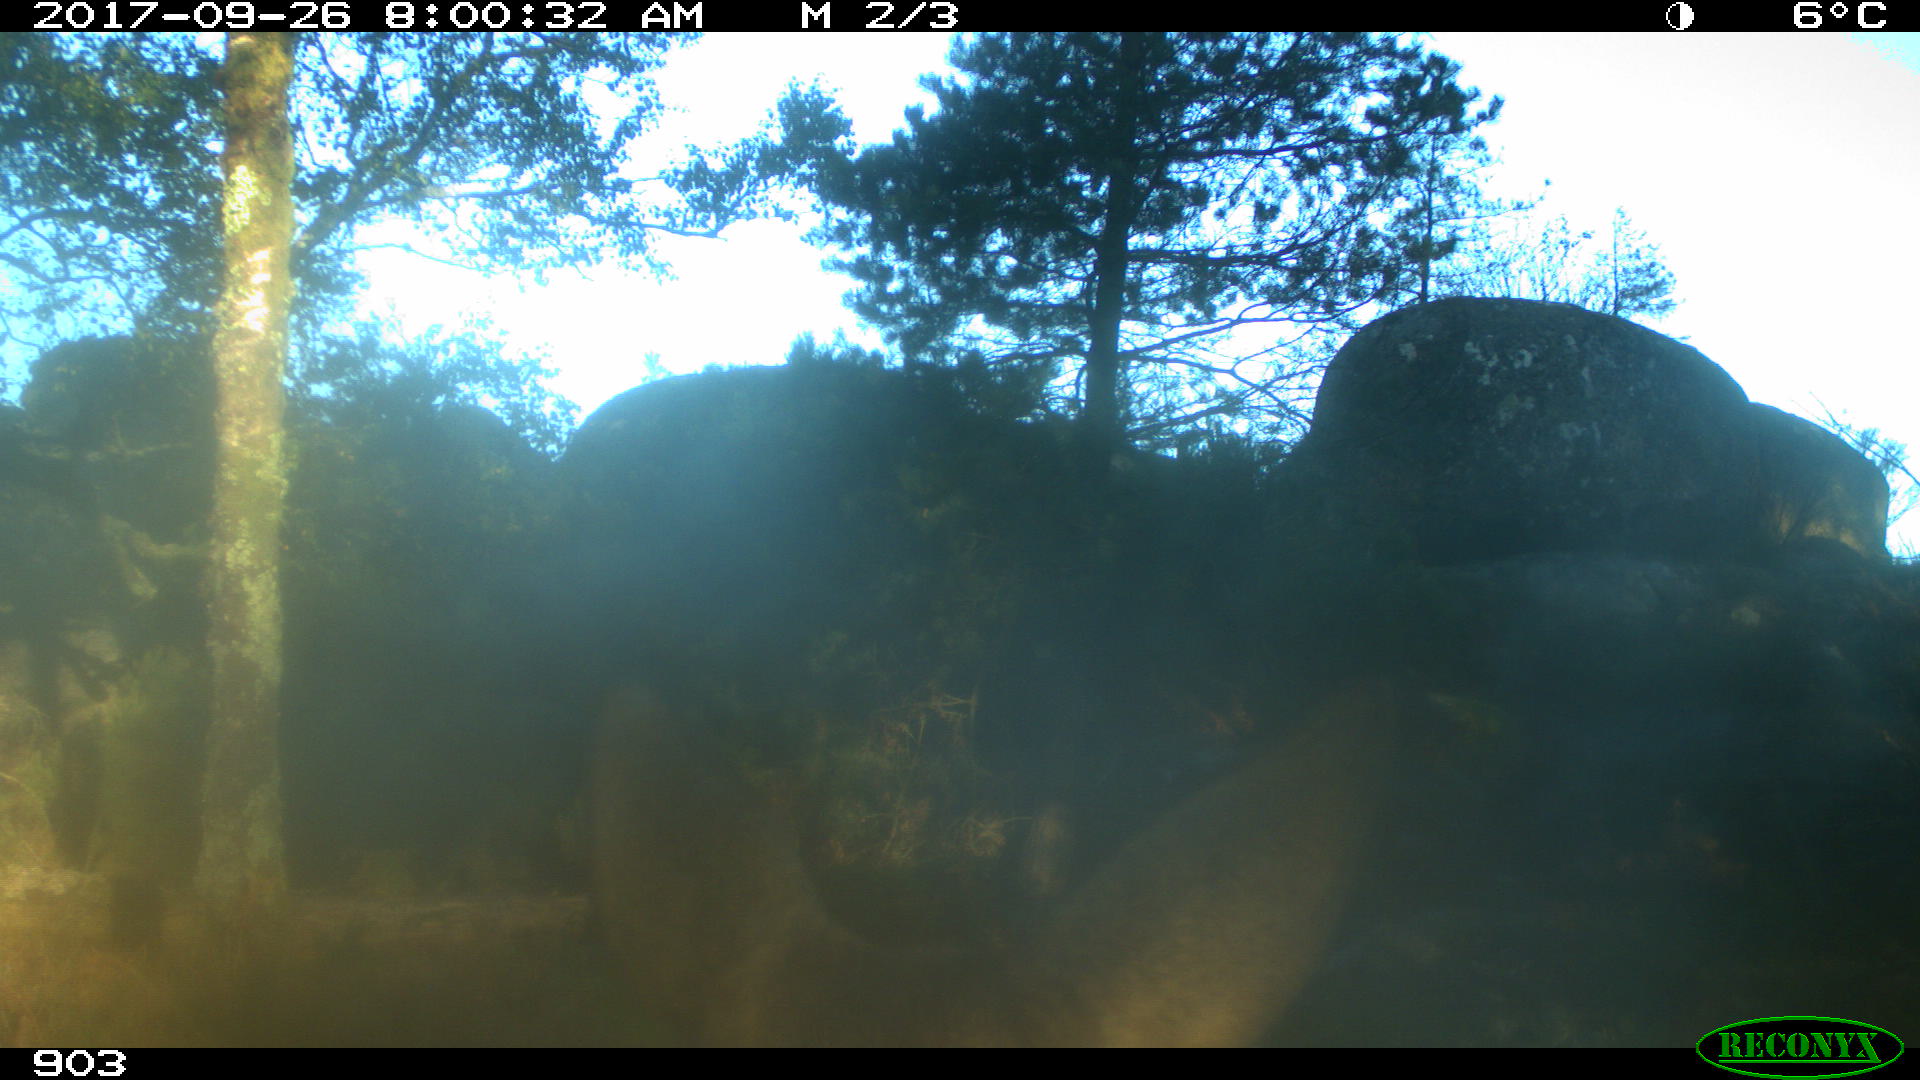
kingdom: Animalia
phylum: Chordata
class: Mammalia
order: Artiodactyla
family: Cervidae
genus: Capreolus
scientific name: Capreolus capreolus
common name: Western roe deer
